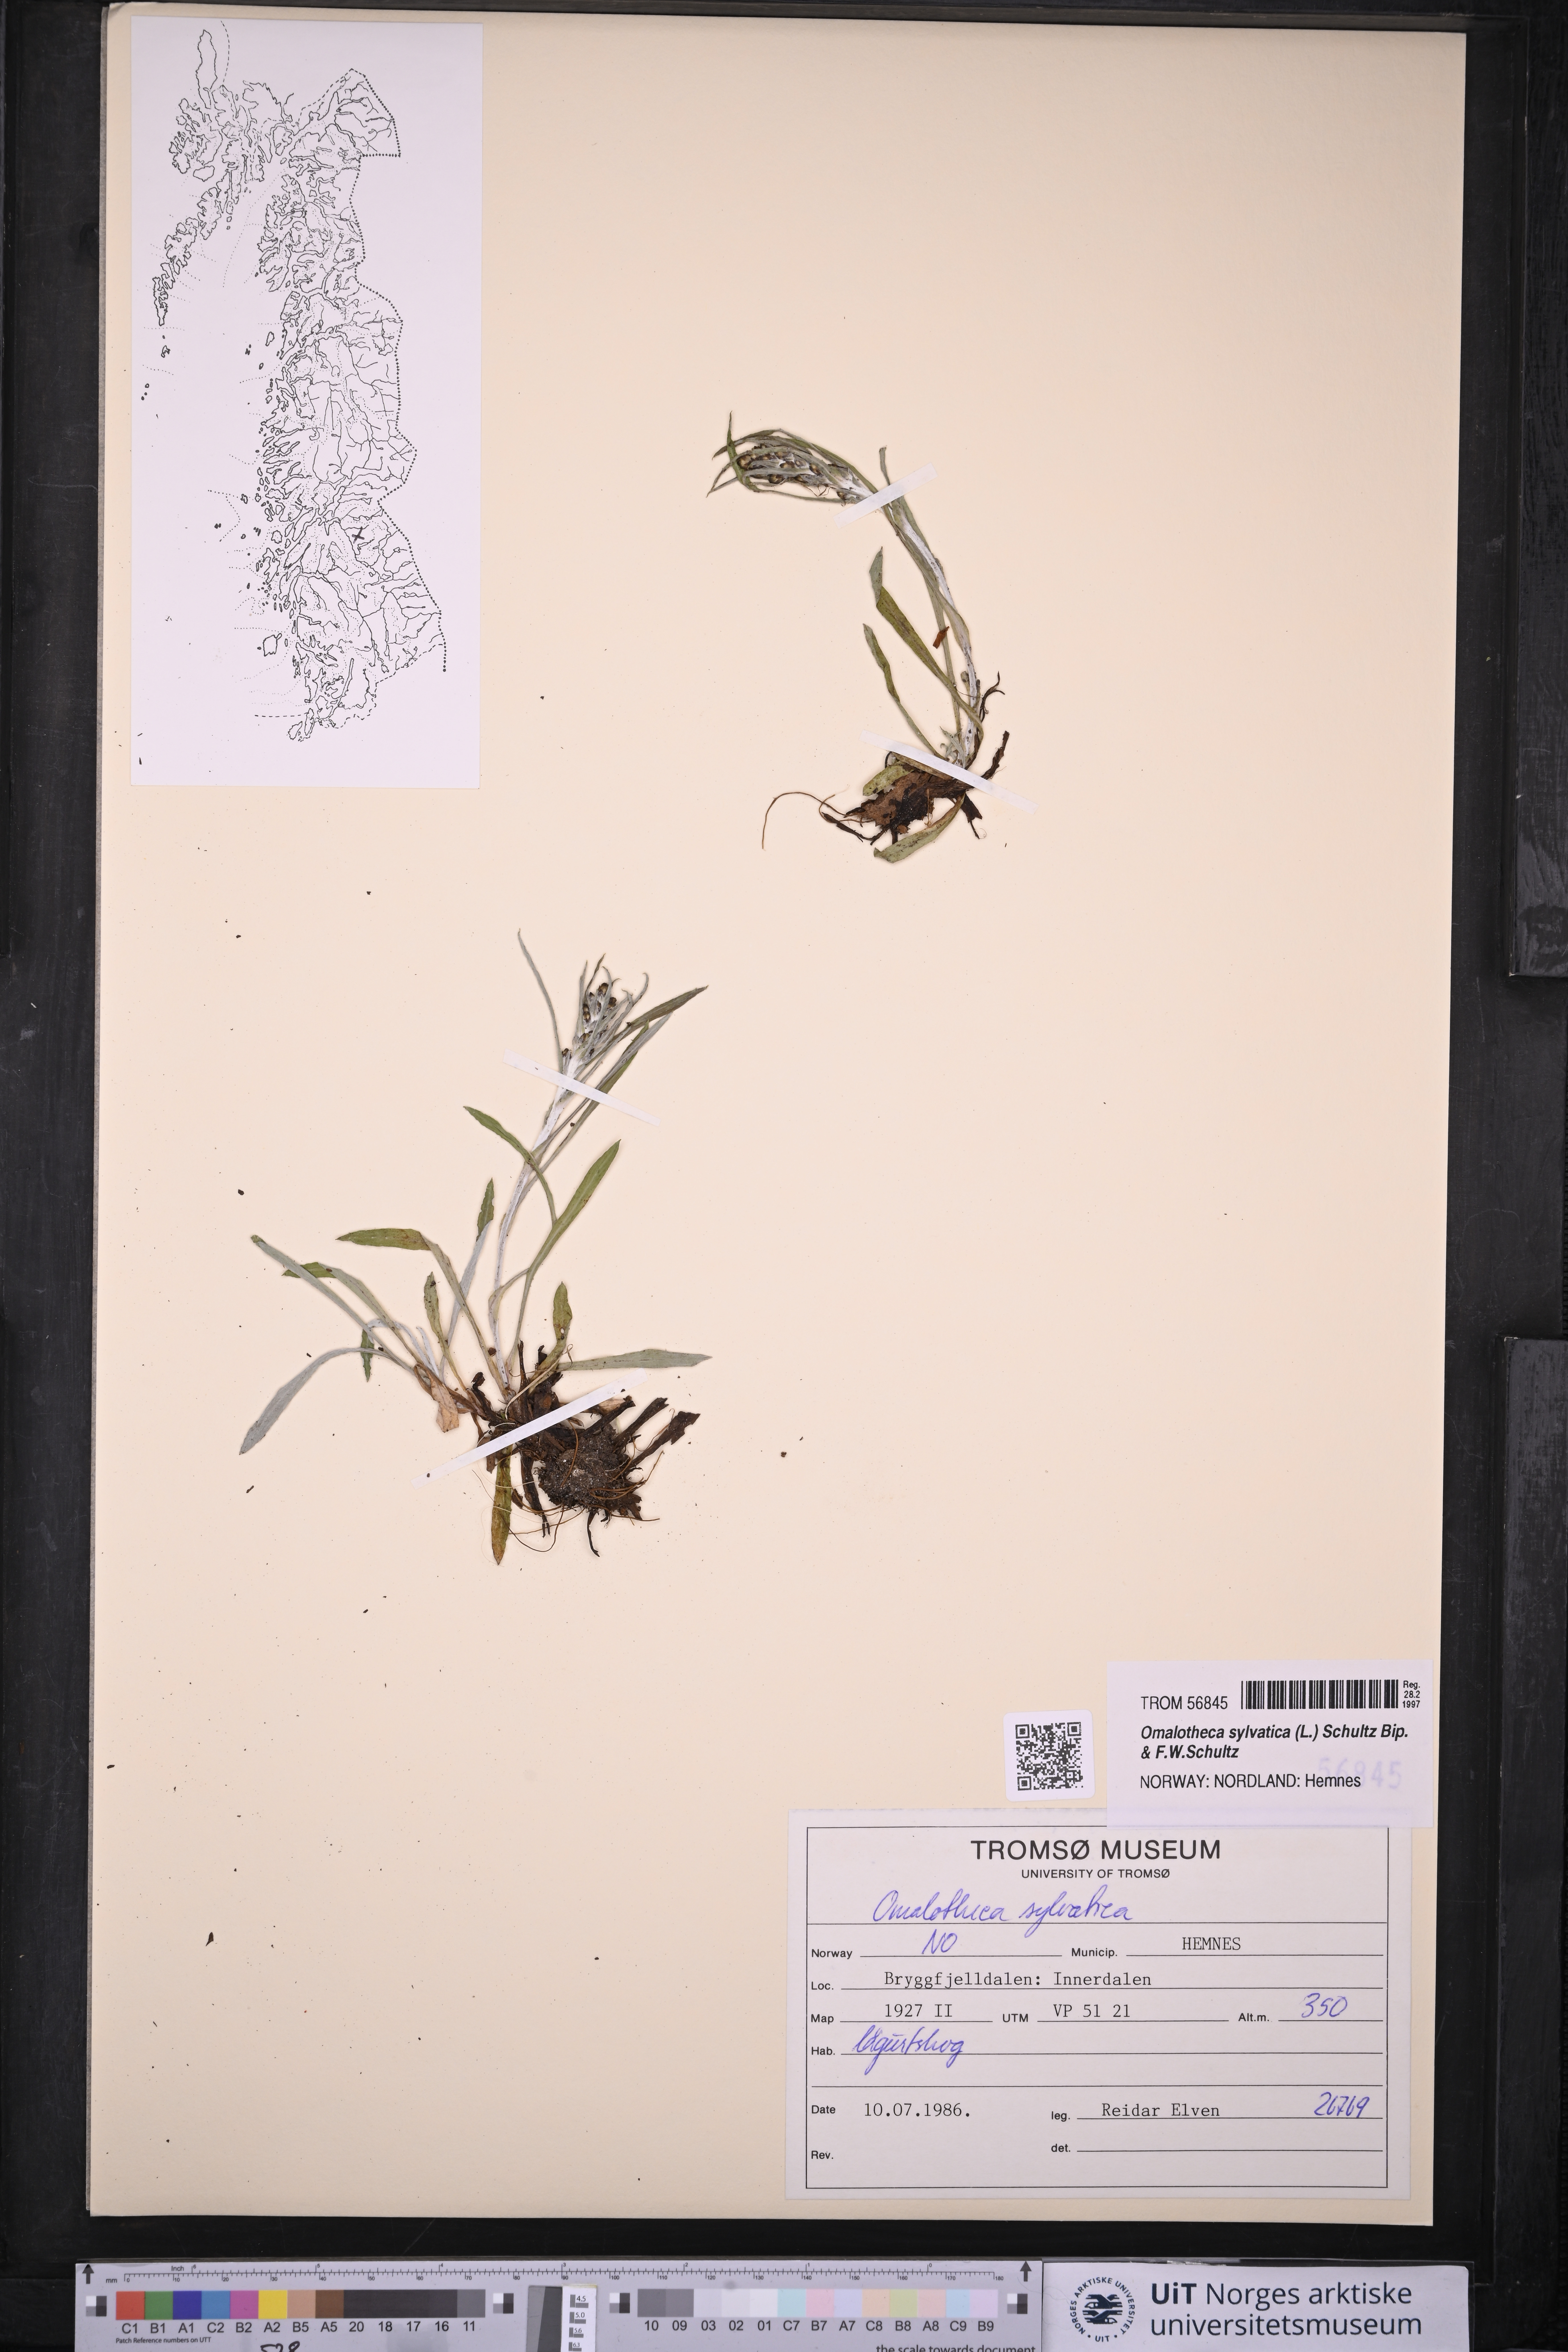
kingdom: Plantae
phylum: Tracheophyta
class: Magnoliopsida
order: Asterales
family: Asteraceae
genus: Omalotheca
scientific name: Omalotheca sylvatica
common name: Heath cudweed
